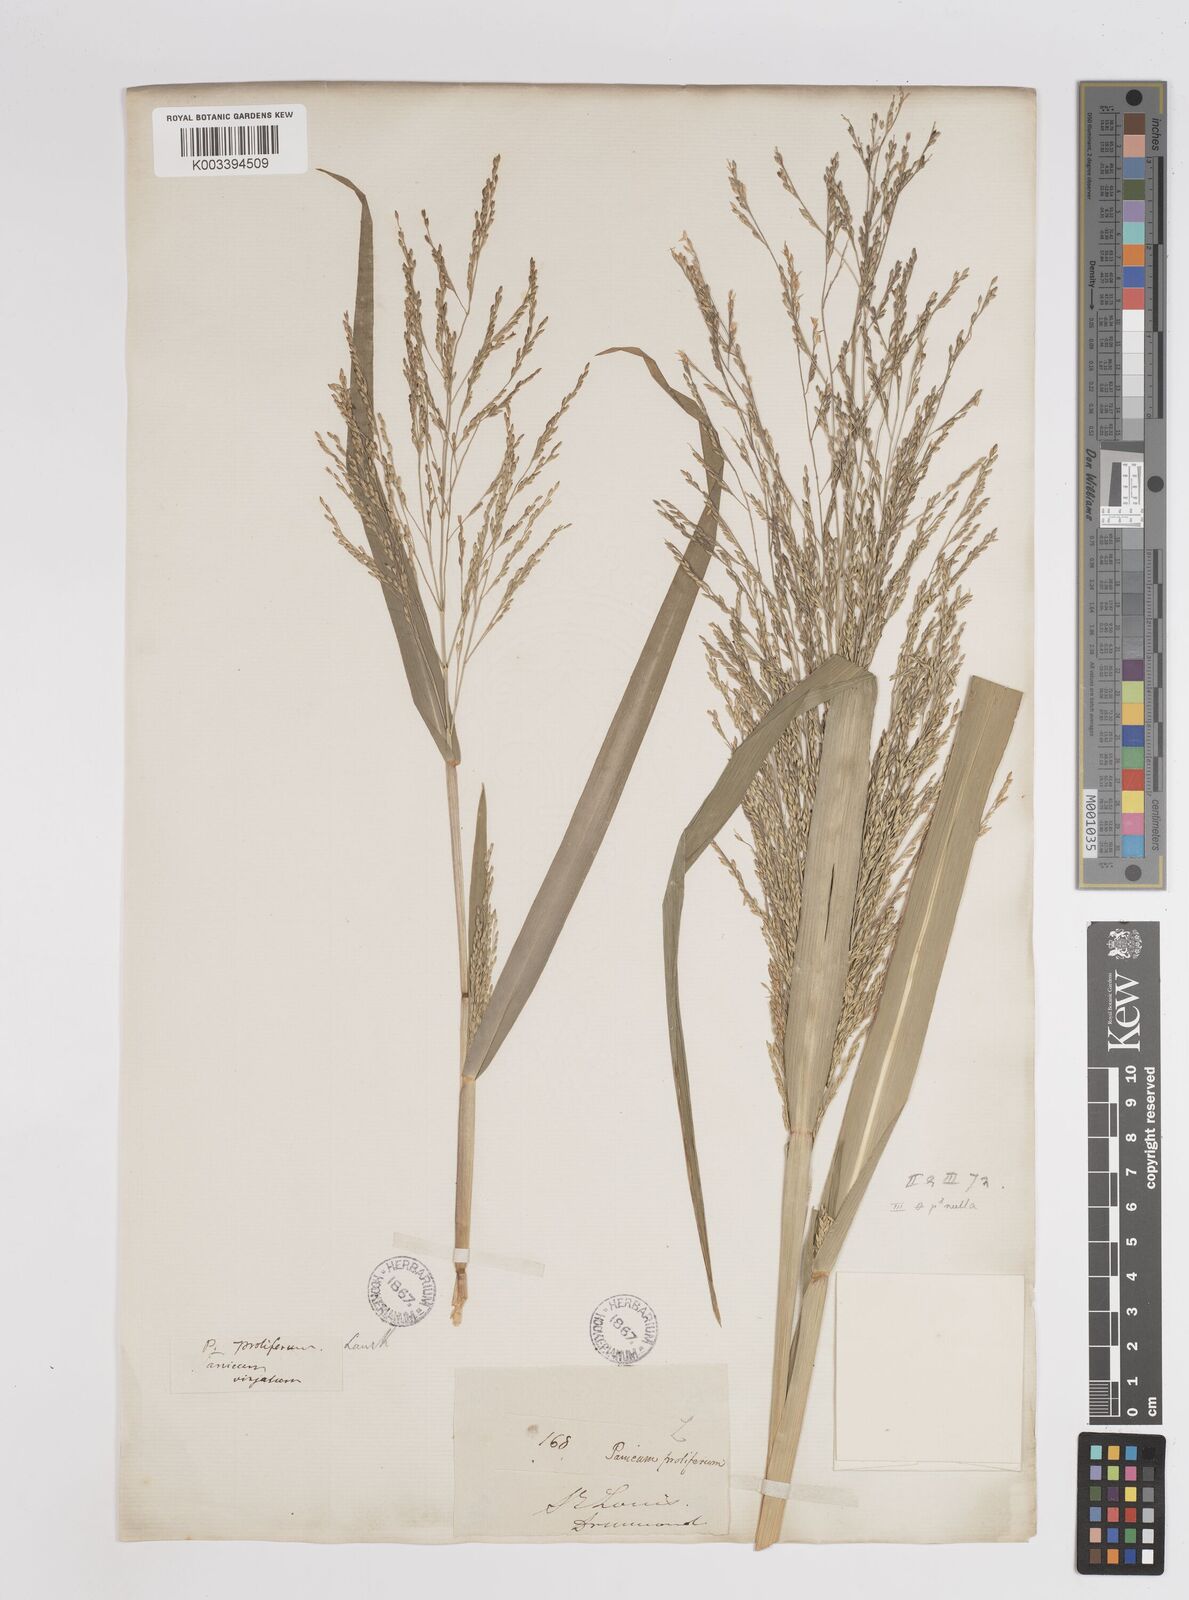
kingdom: Plantae
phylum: Tracheophyta
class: Liliopsida
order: Poales
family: Poaceae
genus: Panicum
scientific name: Panicum dichotomiflorum
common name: Autumn millet
